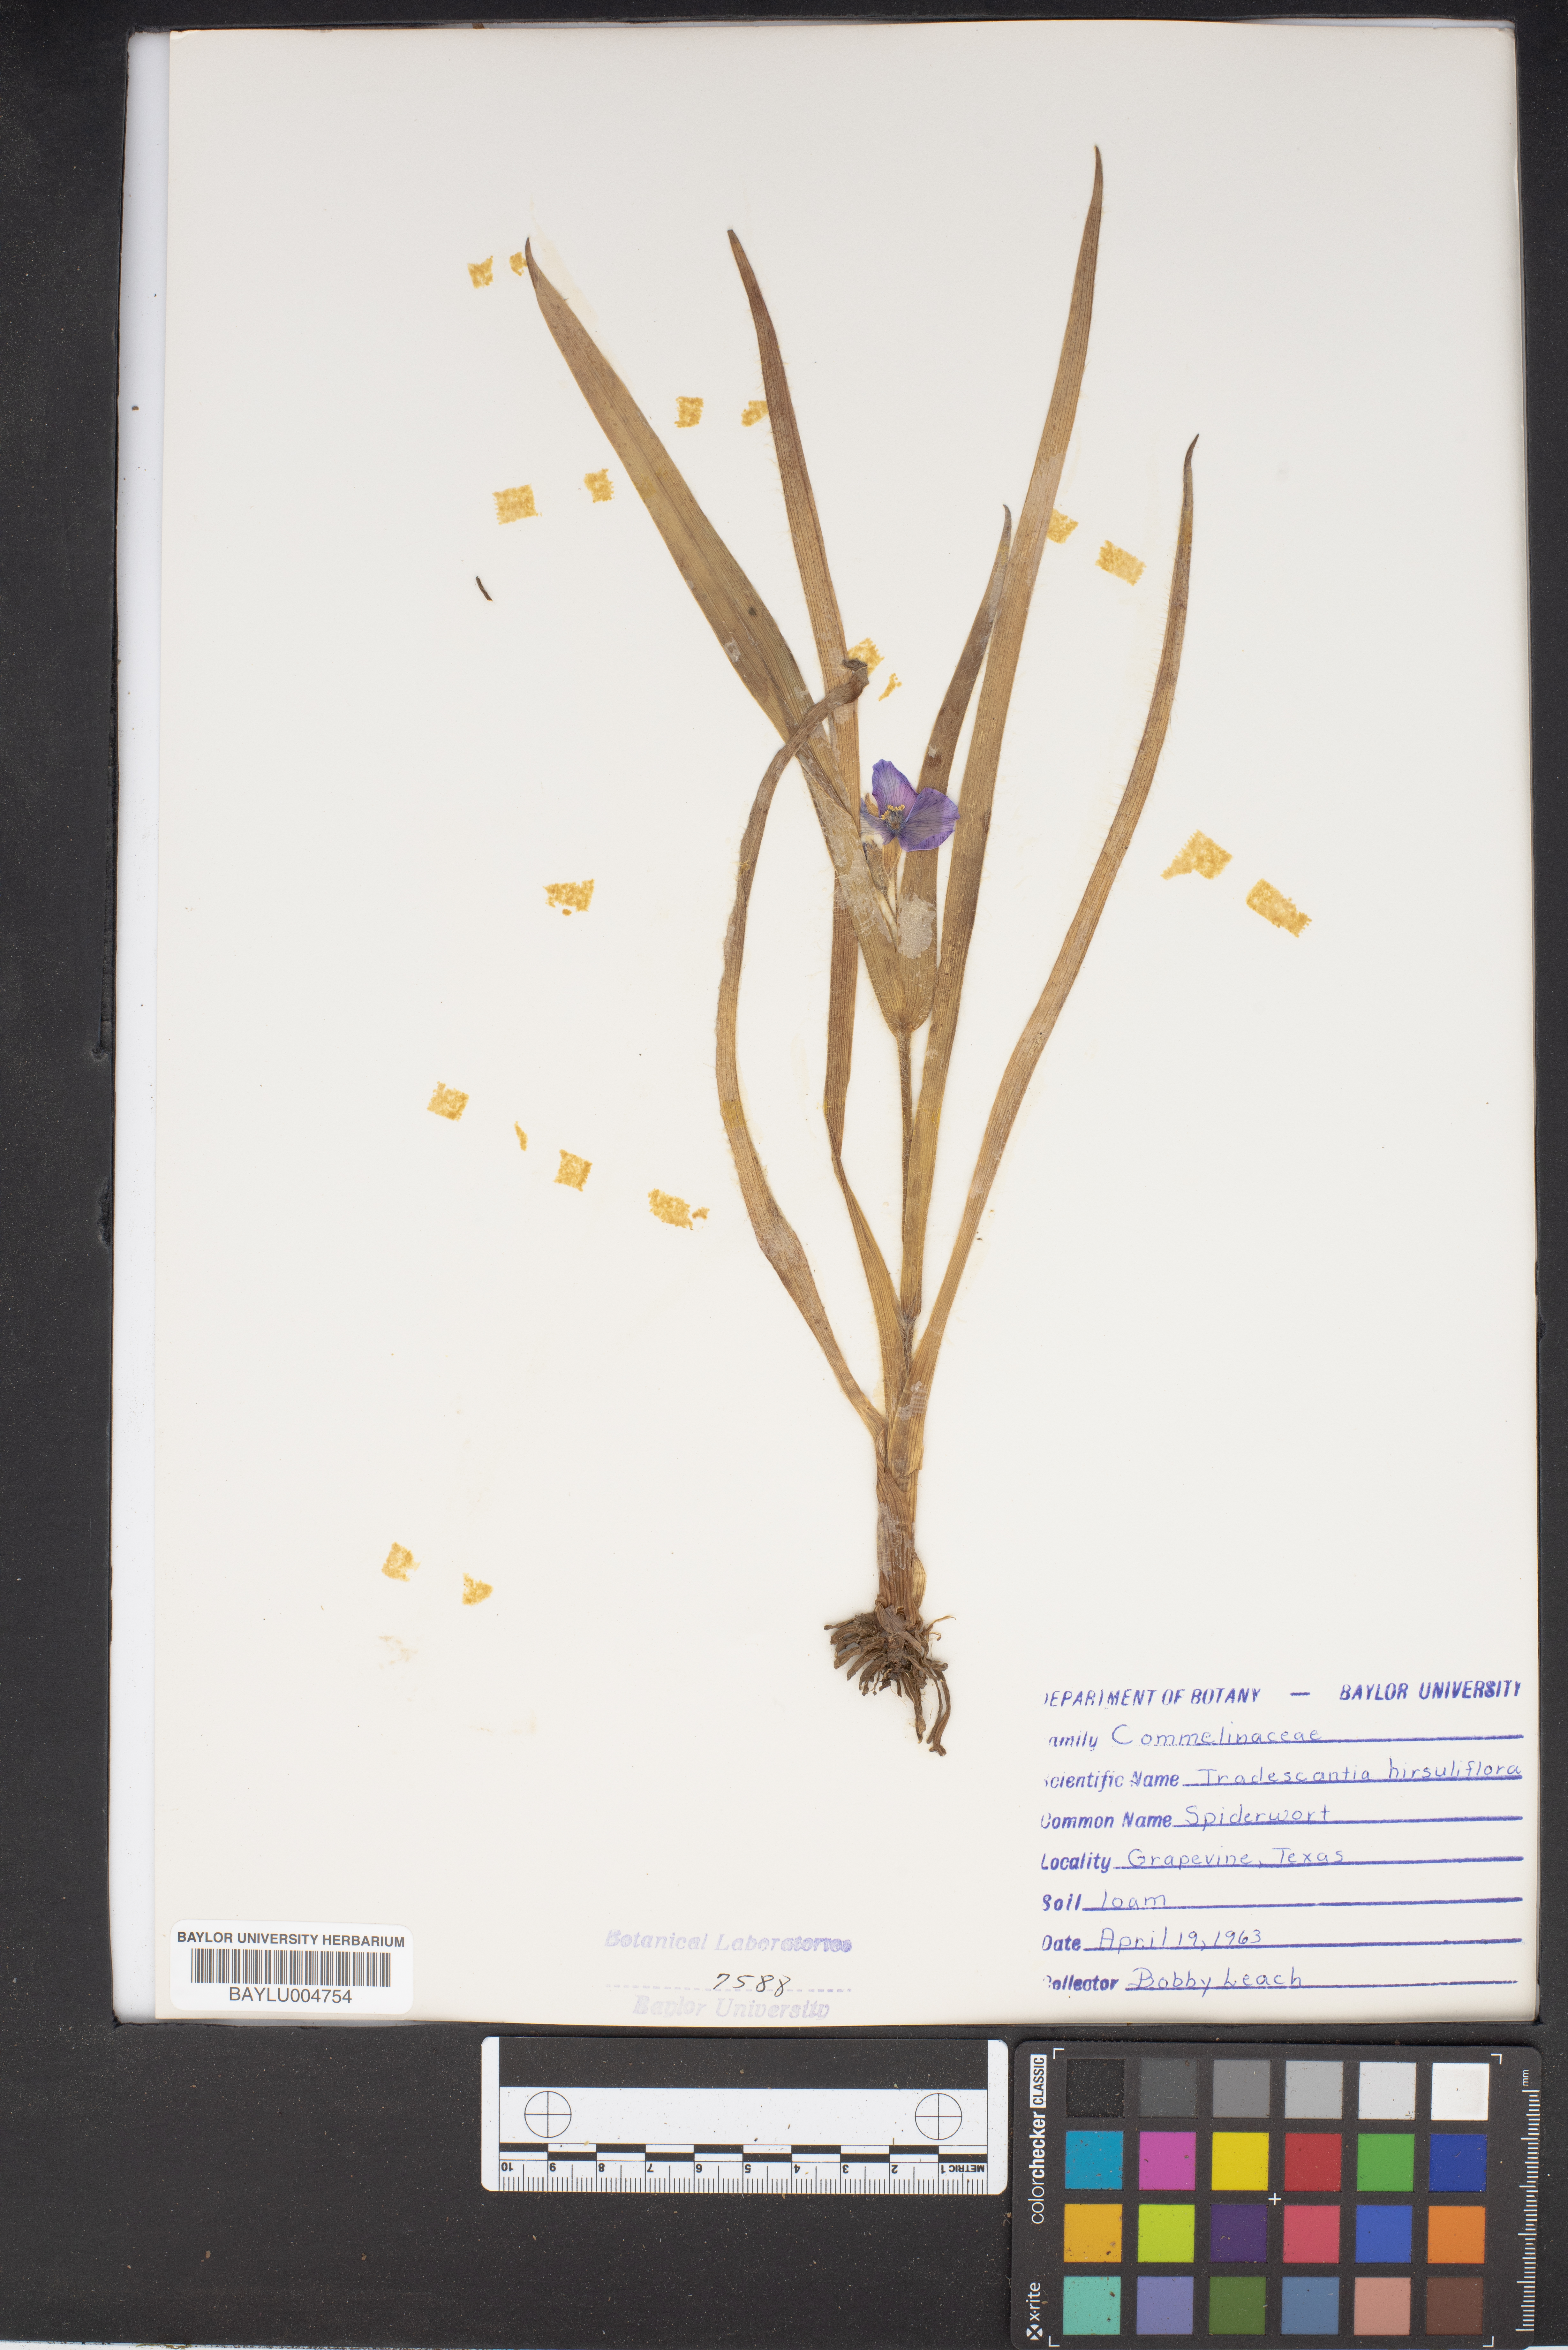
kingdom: Plantae
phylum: Tracheophyta
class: Liliopsida
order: Commelinales
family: Commelinaceae
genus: Tradescantia
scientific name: Tradescantia hirsutiflora
